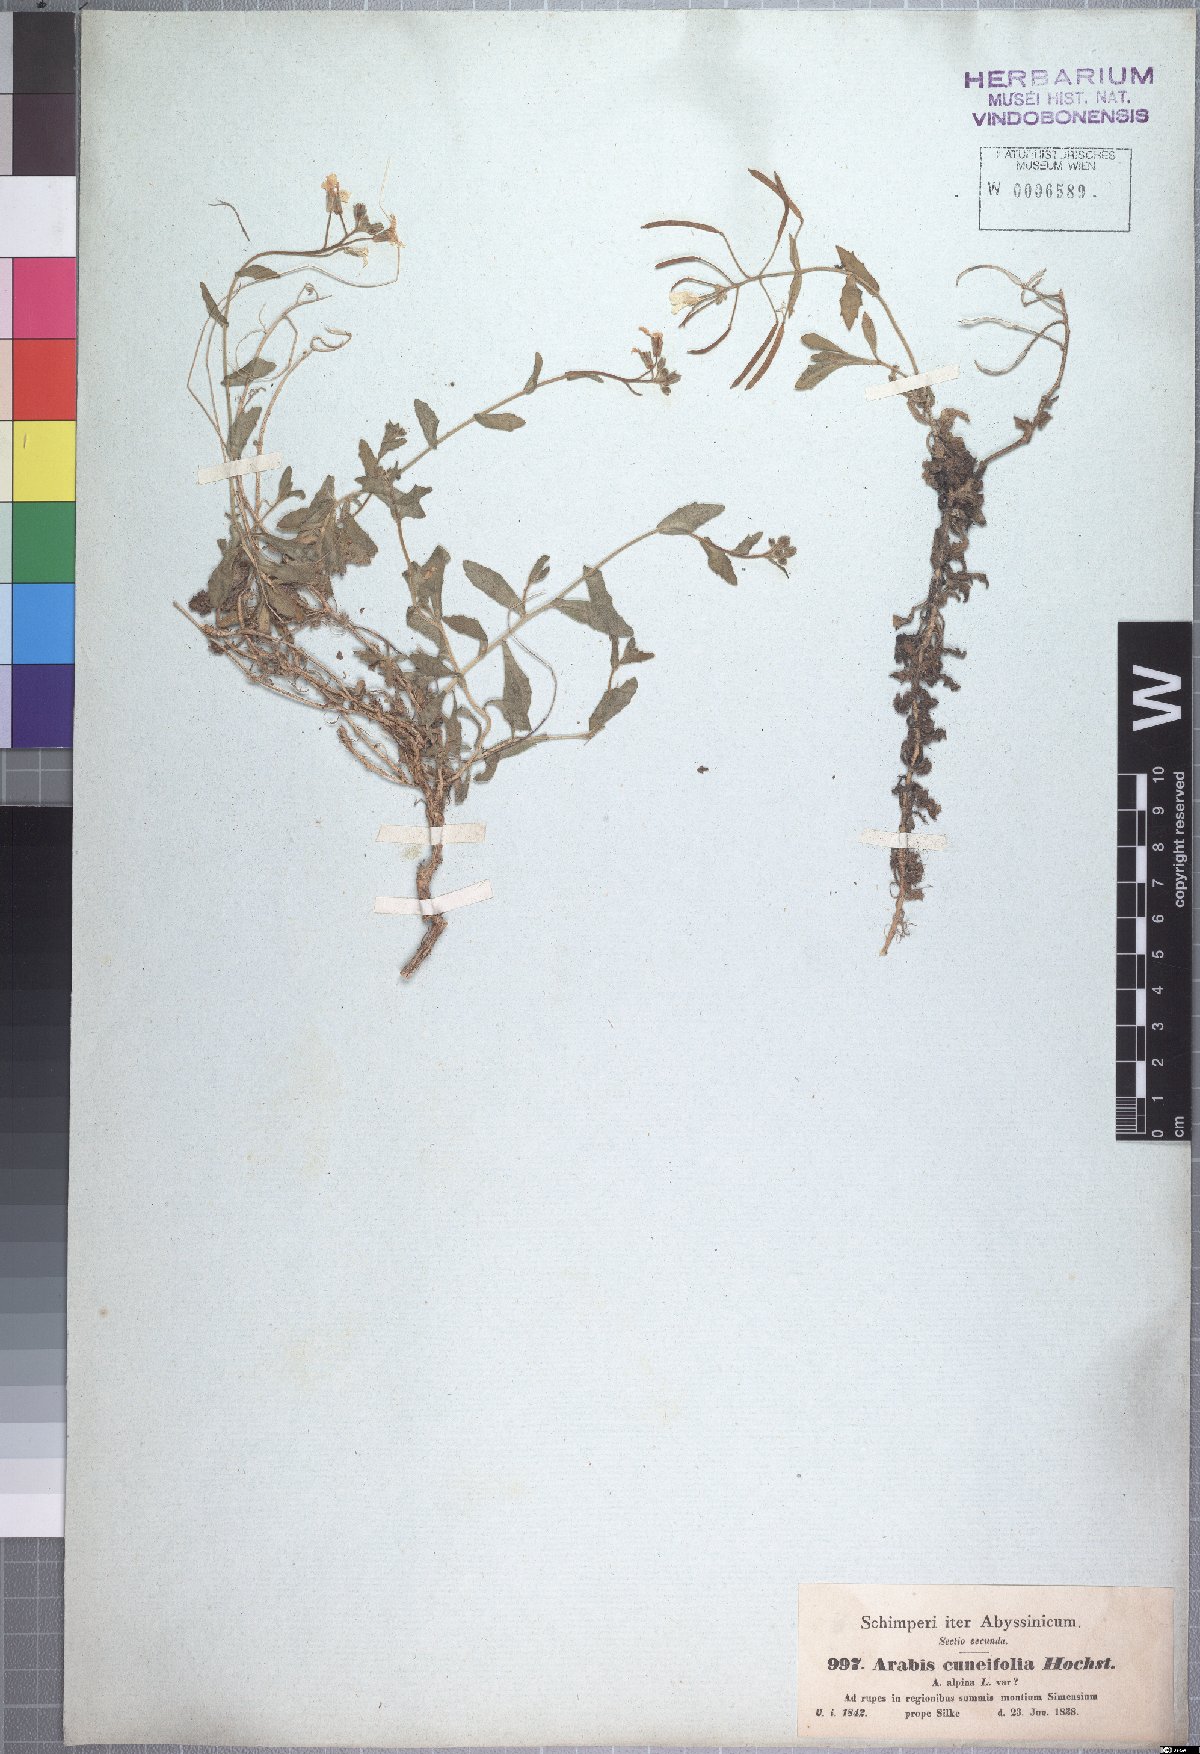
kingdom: Plantae
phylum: Tracheophyta
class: Magnoliopsida
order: Brassicales
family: Brassicaceae
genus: Arabis
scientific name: Arabis alpina
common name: Alpine rock-cress
